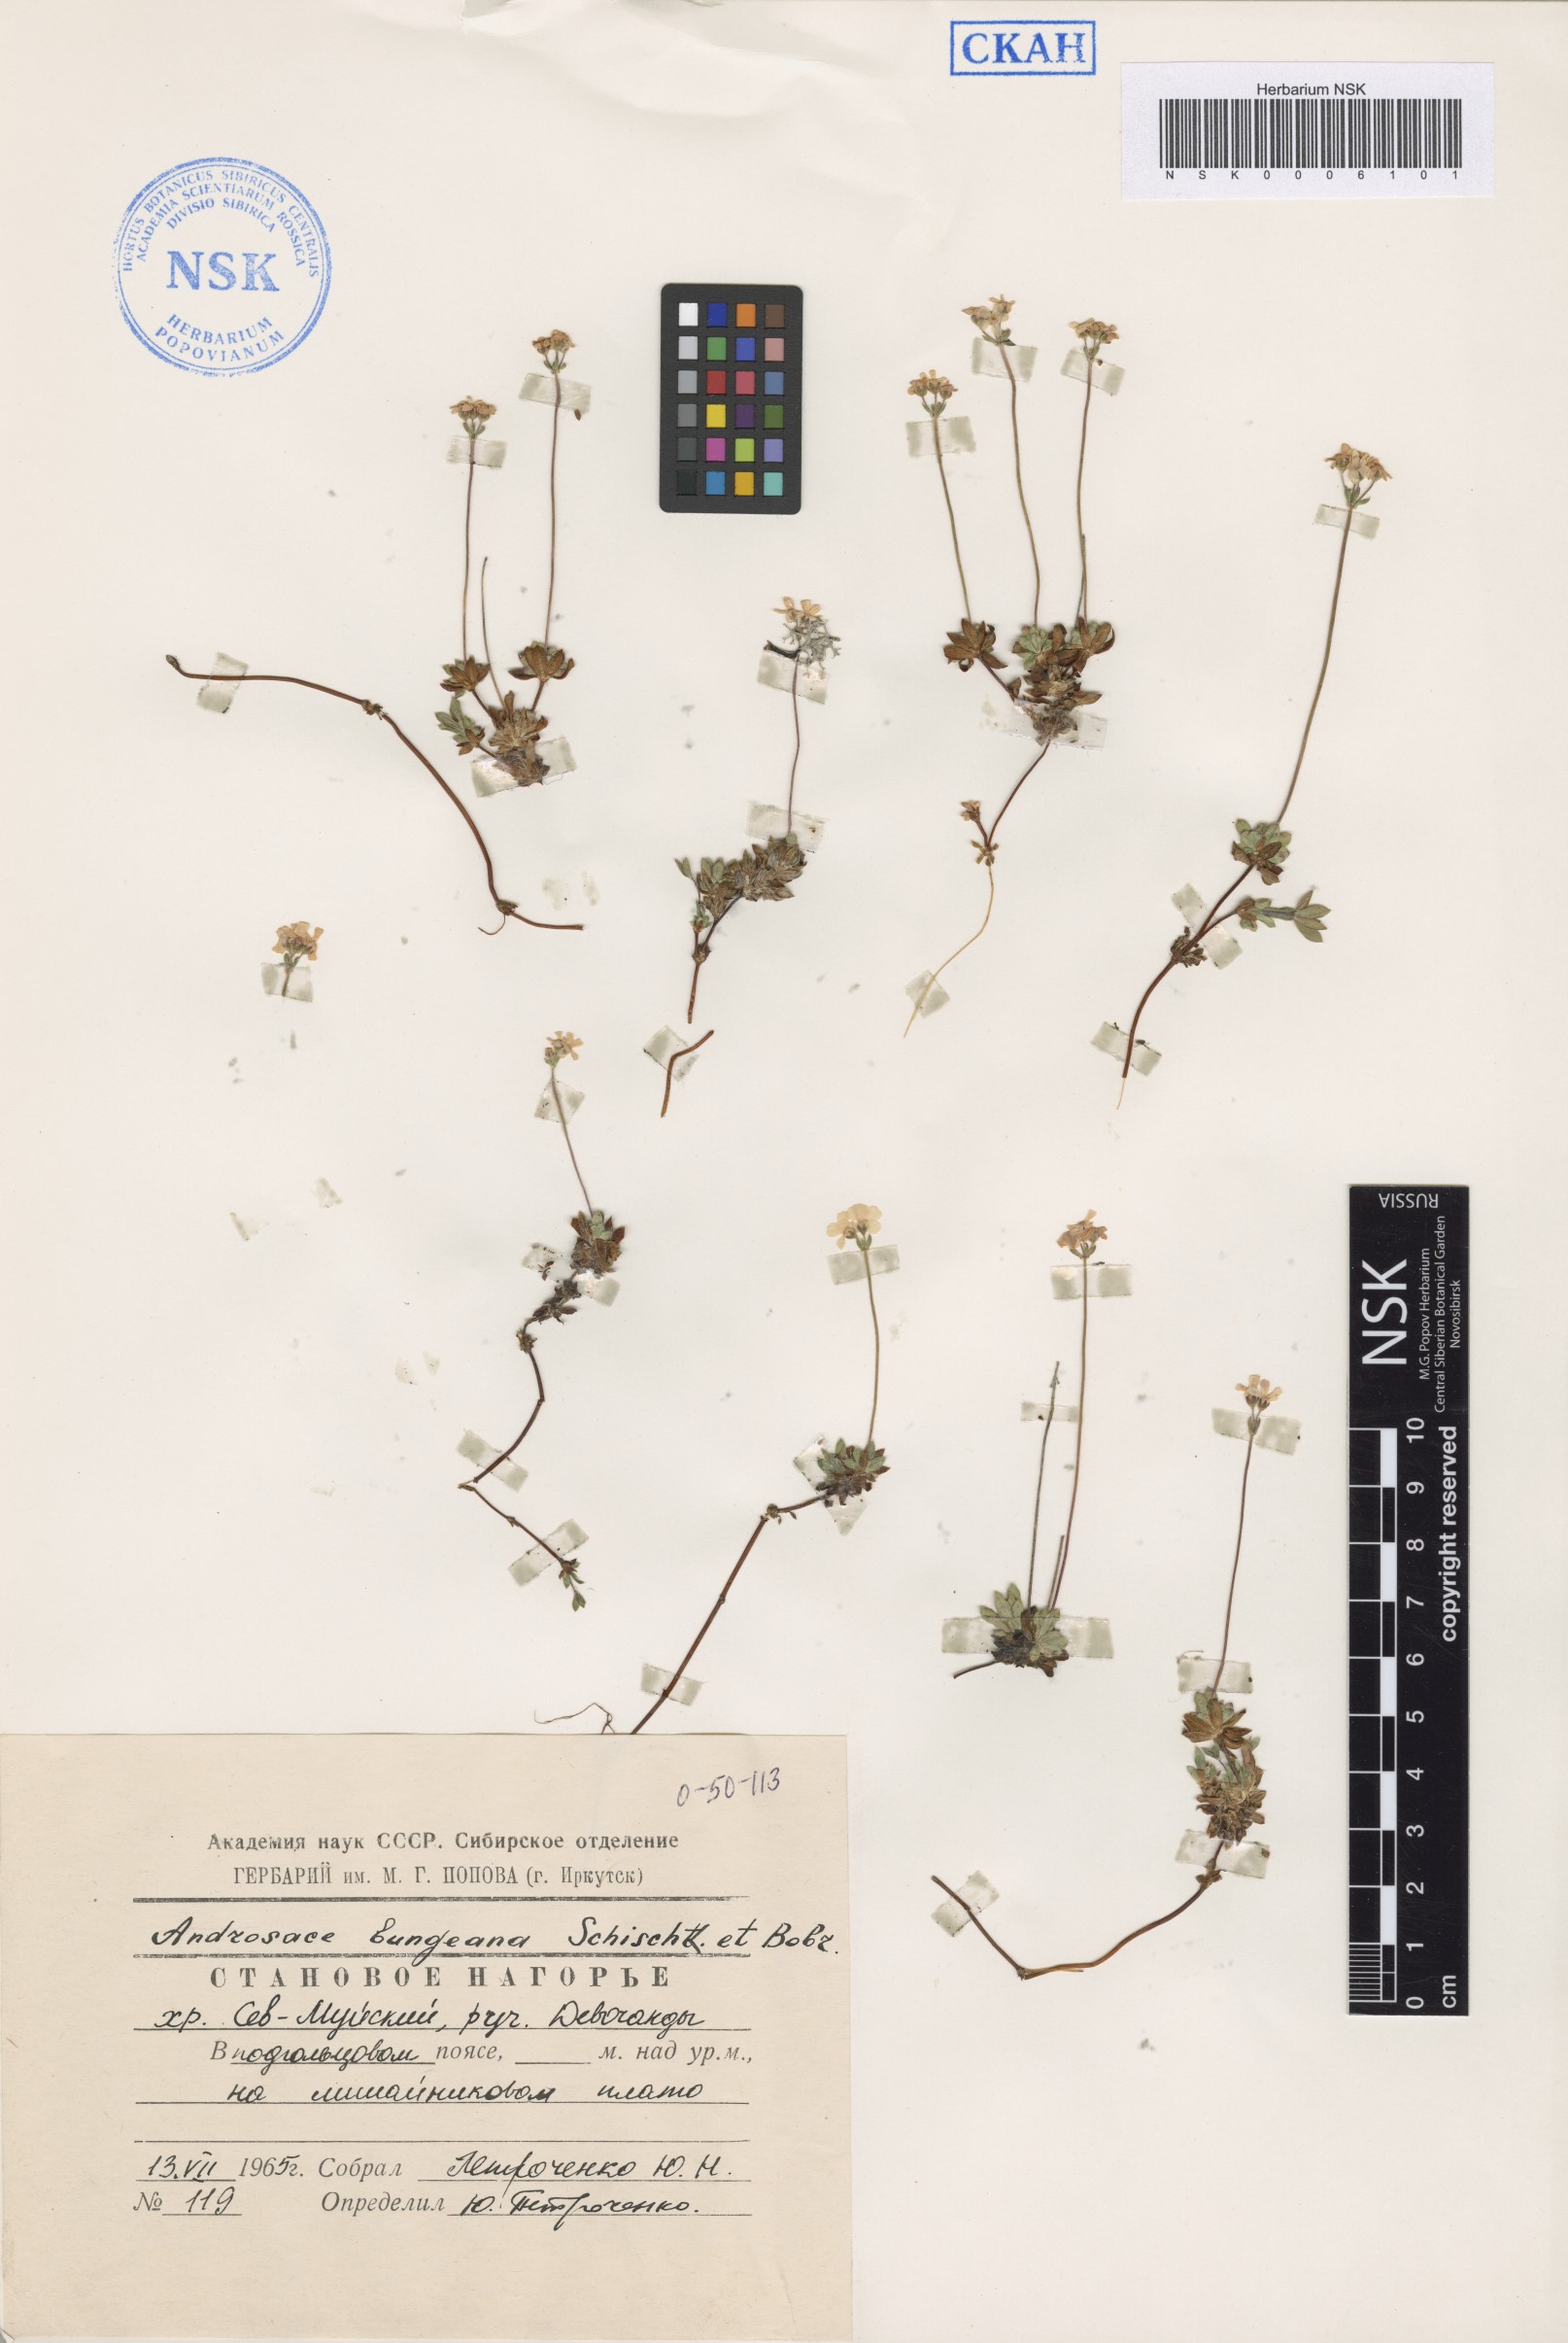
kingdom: Plantae
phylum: Tracheophyta
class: Magnoliopsida
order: Ericales
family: Primulaceae
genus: Androsace
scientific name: Androsace bungeana
